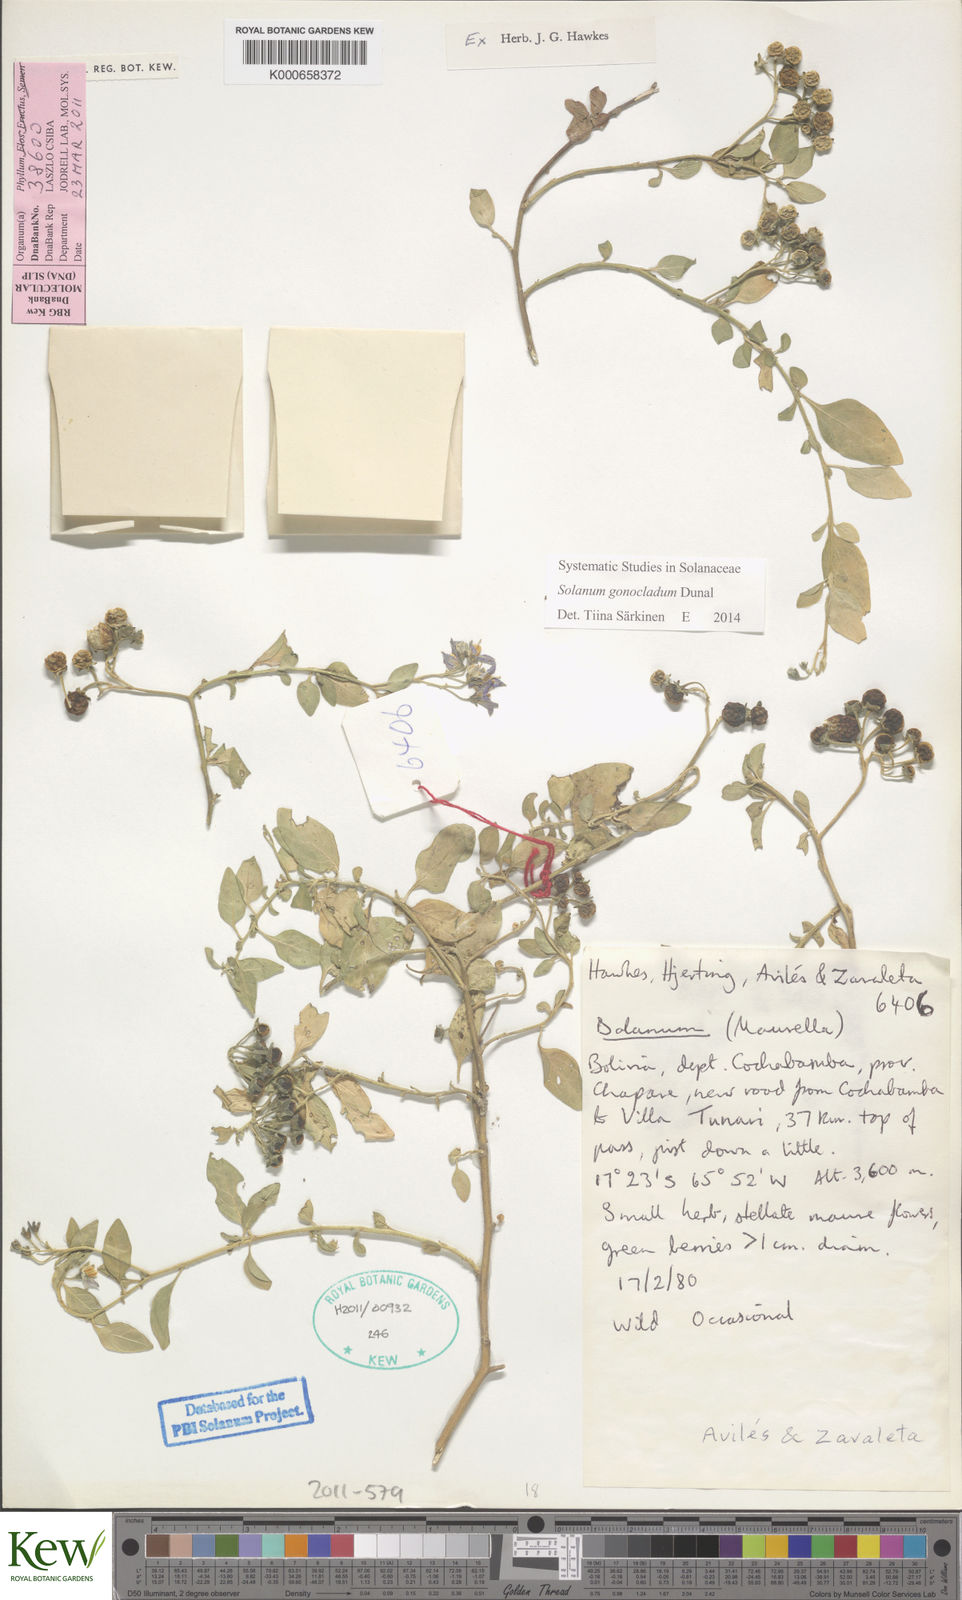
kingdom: Plantae
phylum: Tracheophyta
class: Magnoliopsida
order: Solanales
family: Solanaceae
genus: Solanum
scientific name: Solanum gonocladum
